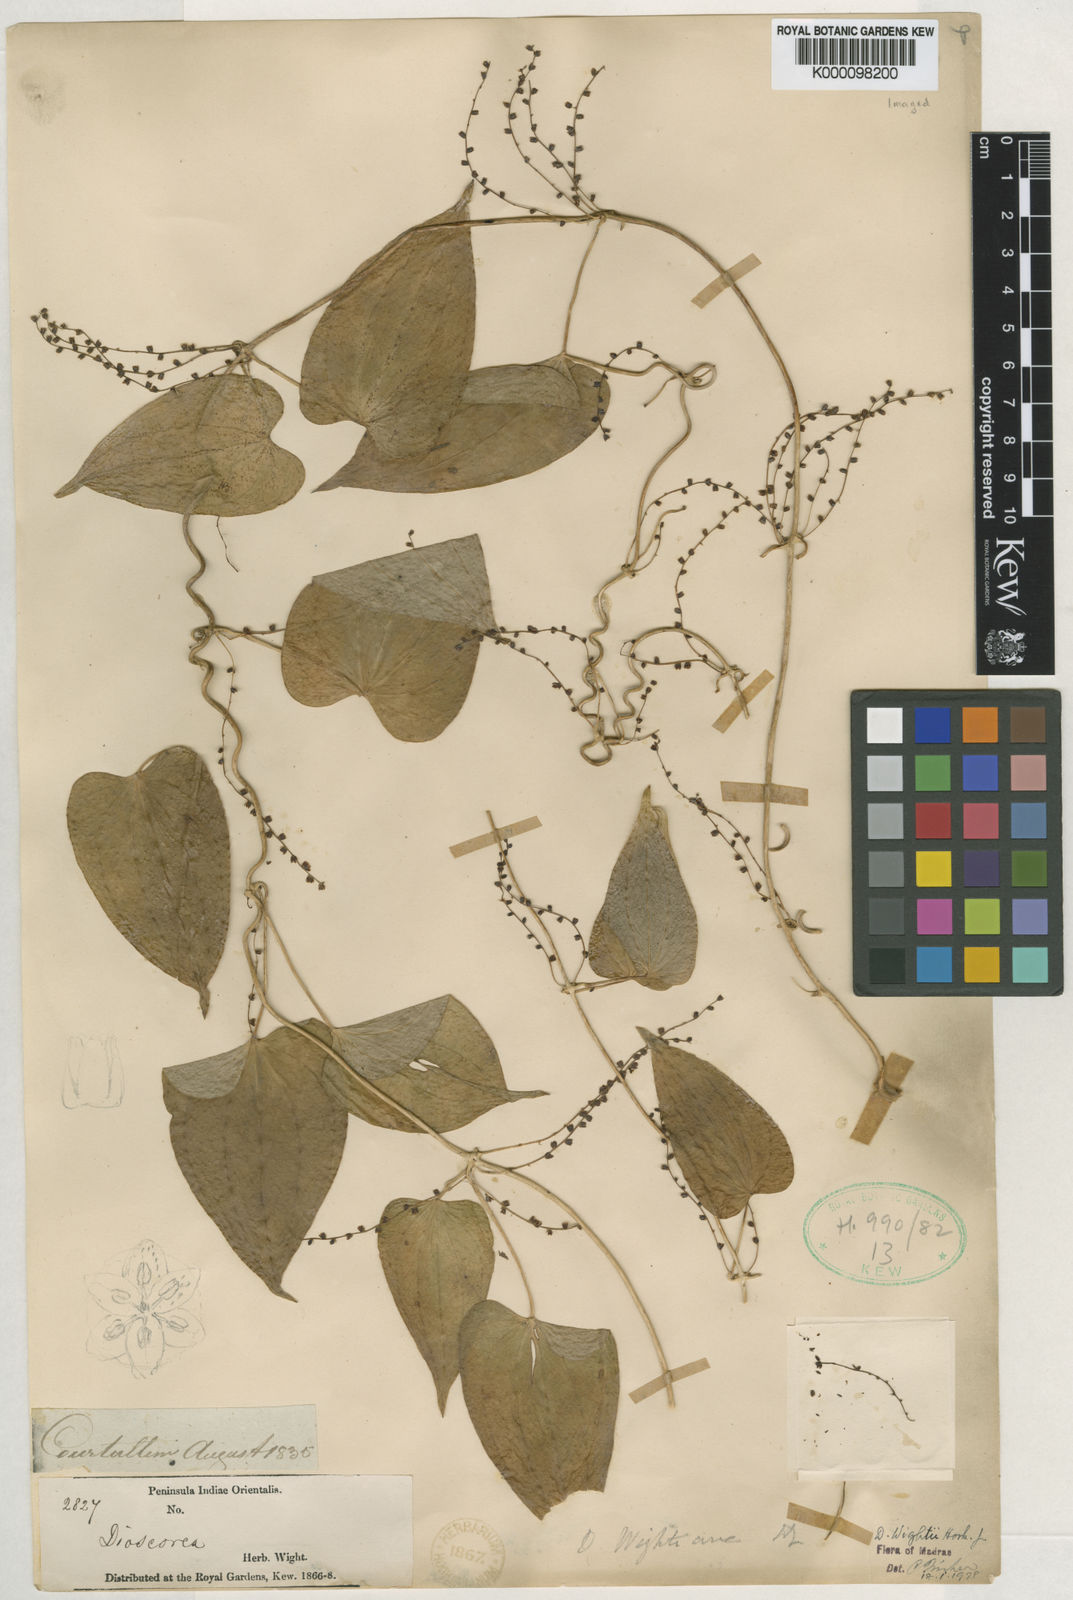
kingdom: Plantae
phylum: Tracheophyta
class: Liliopsida
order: Dioscoreales
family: Dioscoreaceae
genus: Dioscorea
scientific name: Dioscorea wightii
